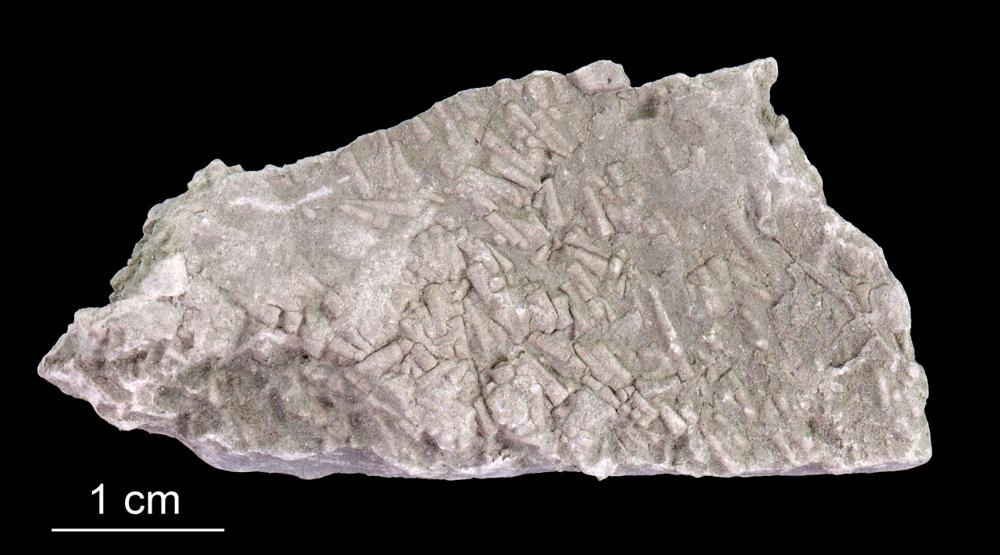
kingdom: Animalia
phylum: Annelida
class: Polychaeta
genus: Volborthella
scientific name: Volborthella tenuis
